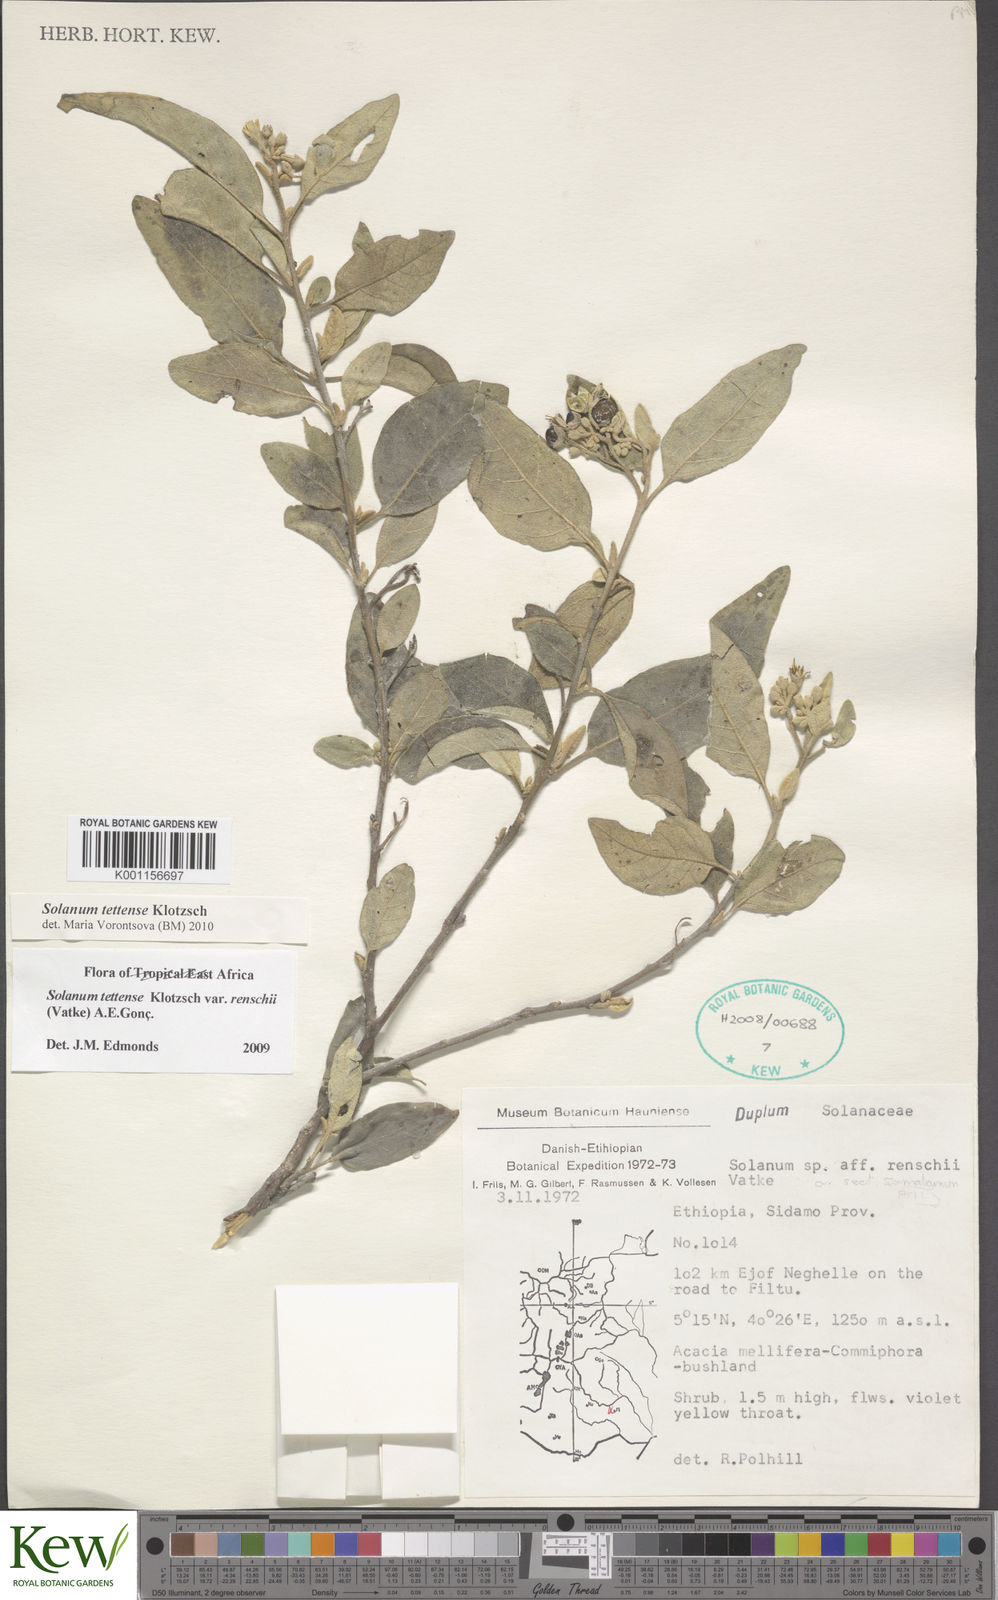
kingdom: Plantae
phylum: Tracheophyta
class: Magnoliopsida
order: Solanales
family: Solanaceae
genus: Solanum
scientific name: Solanum tettense
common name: Mozambique bitter apple
